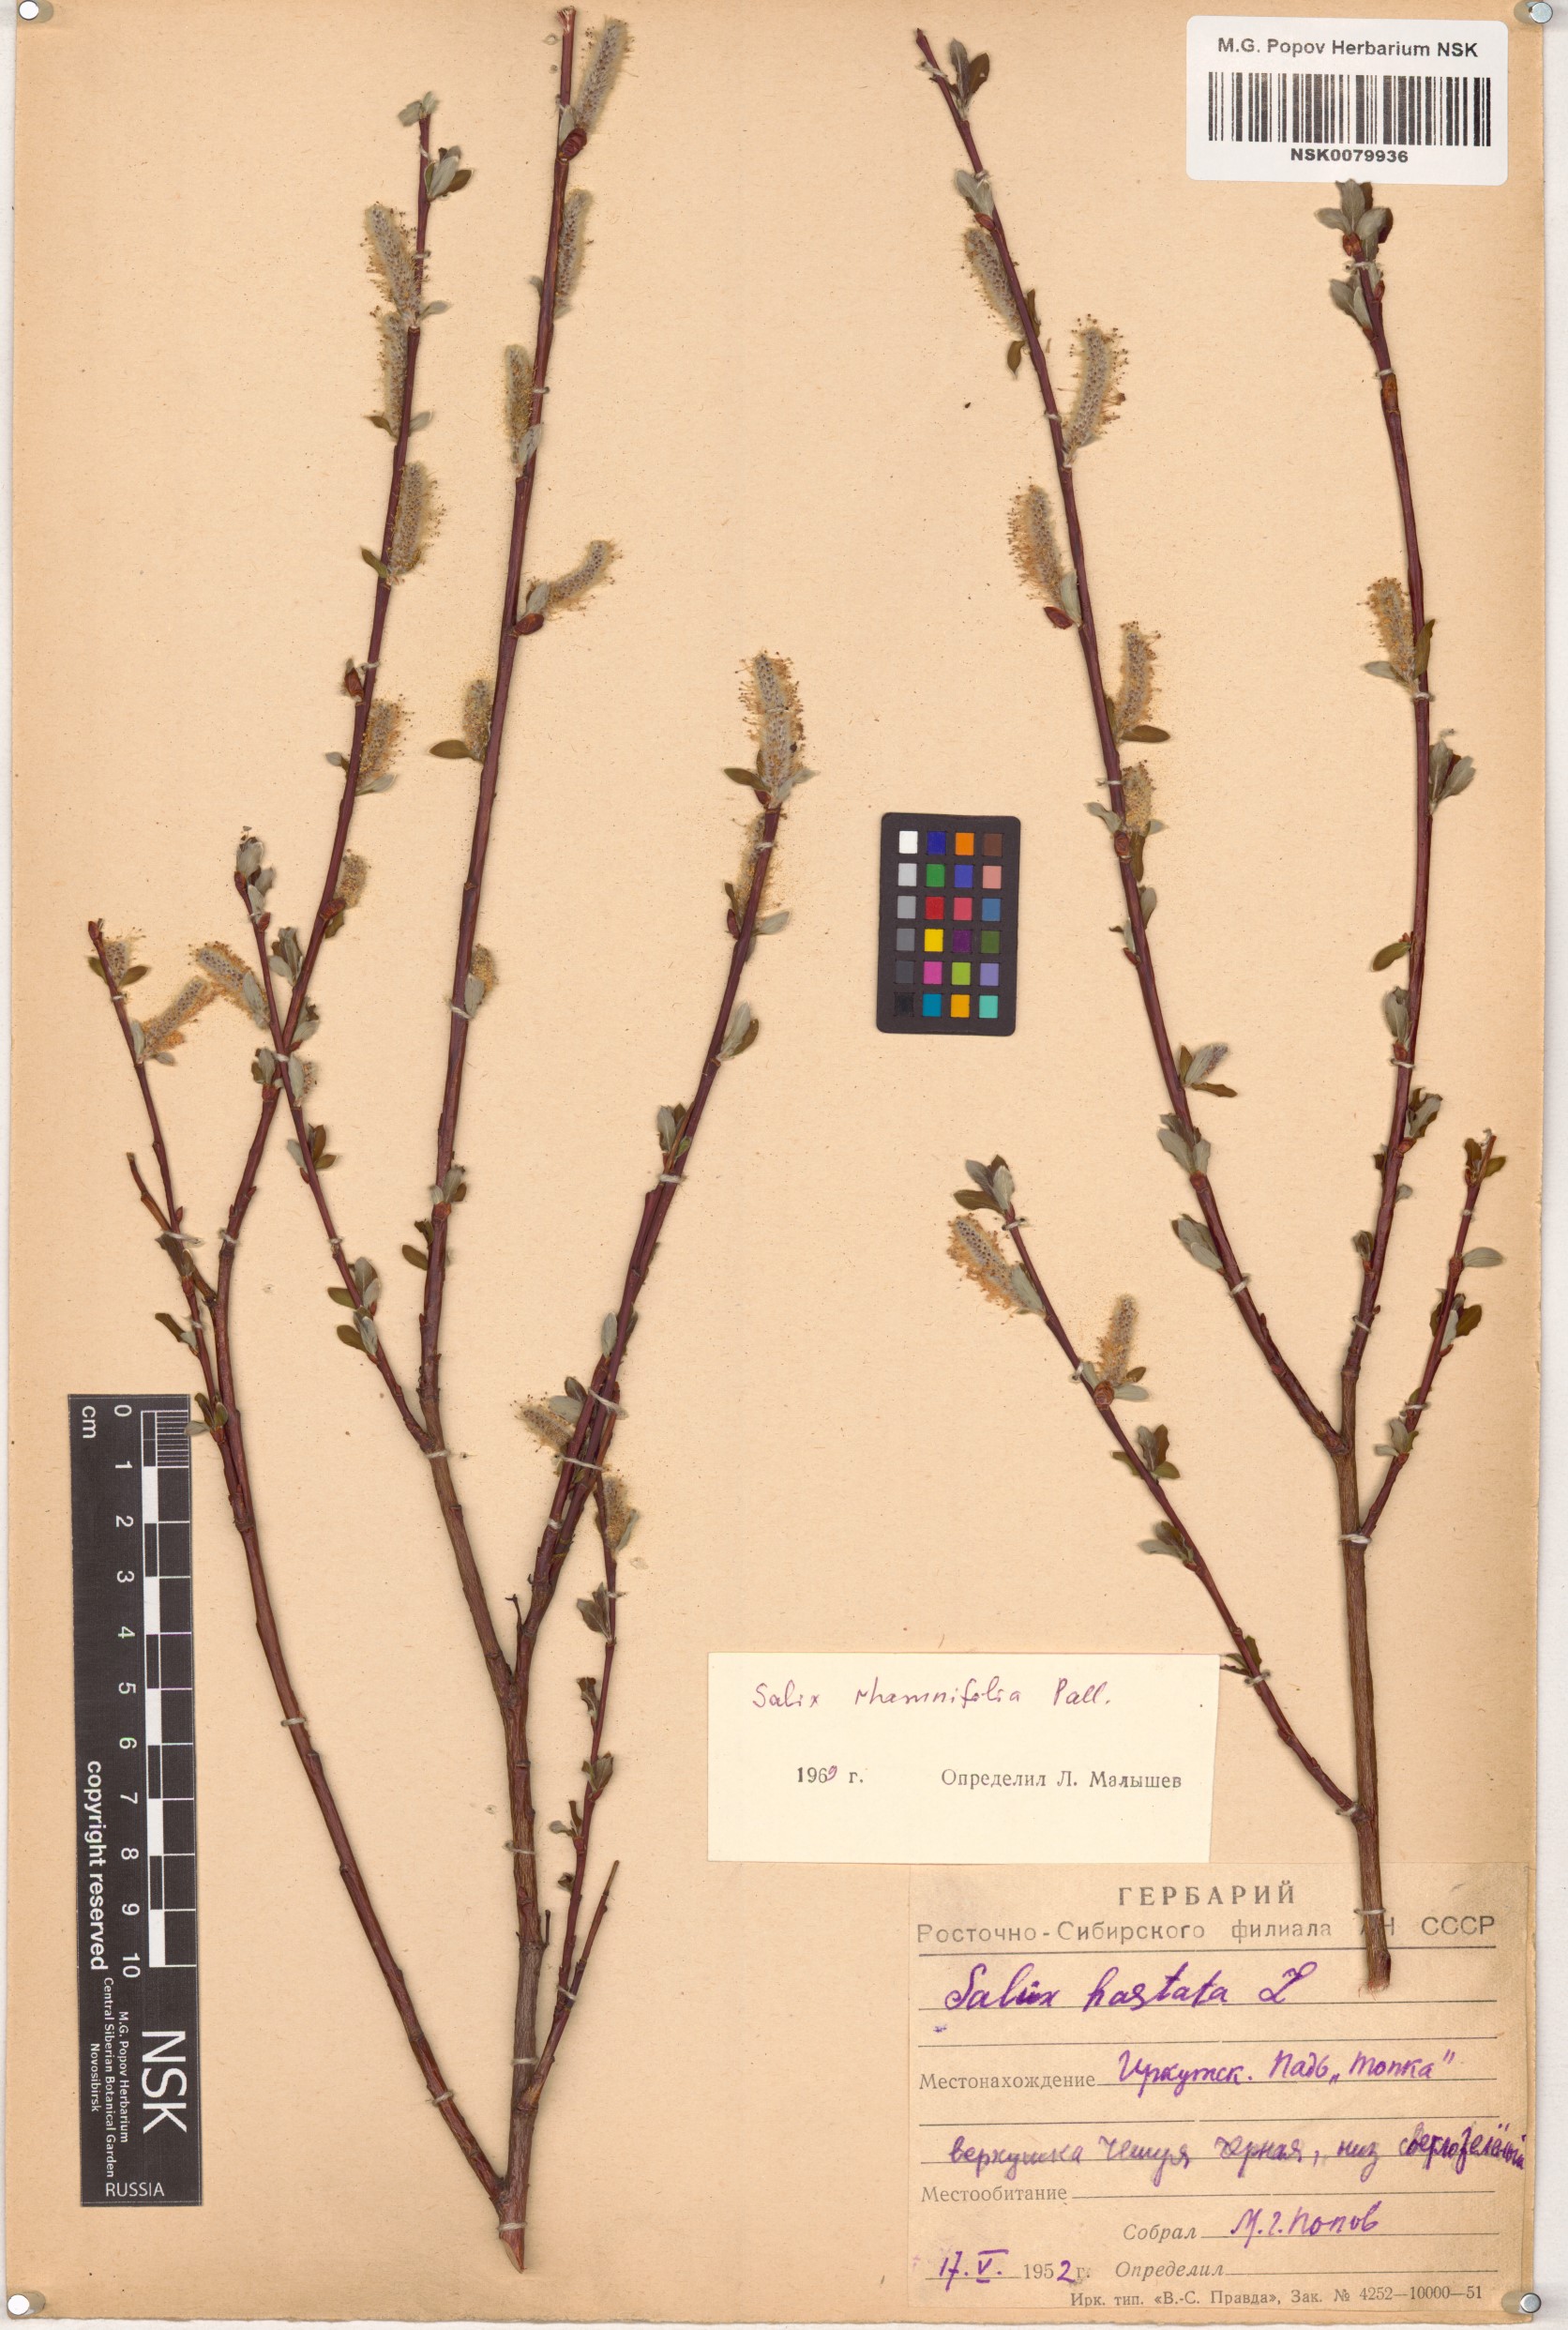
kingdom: Plantae
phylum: Tracheophyta
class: Magnoliopsida
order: Malpighiales
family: Salicaceae
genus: Salix
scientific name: Salix rhamnifolia
